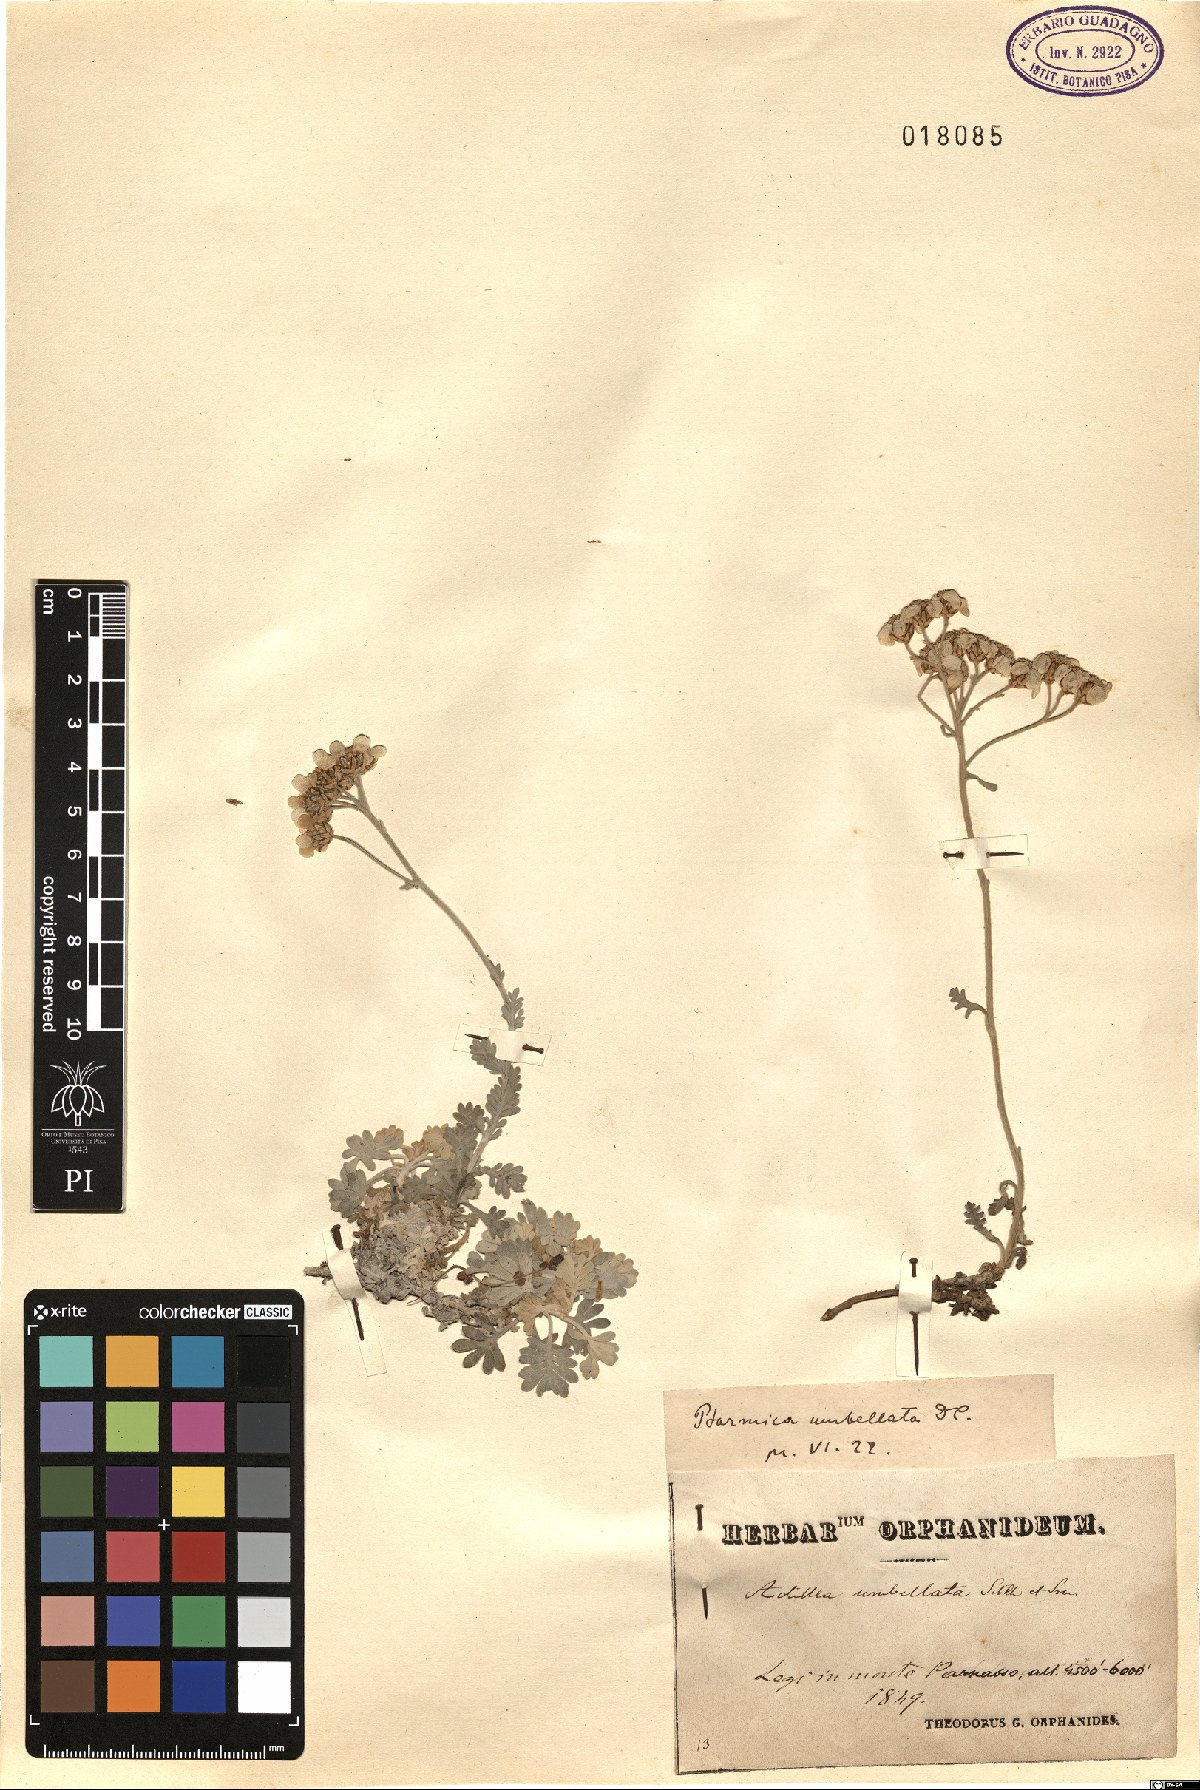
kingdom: Plantae
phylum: Tracheophyta
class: Magnoliopsida
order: Asterales
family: Asteraceae
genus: Achillea
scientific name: Achillea umbellata
